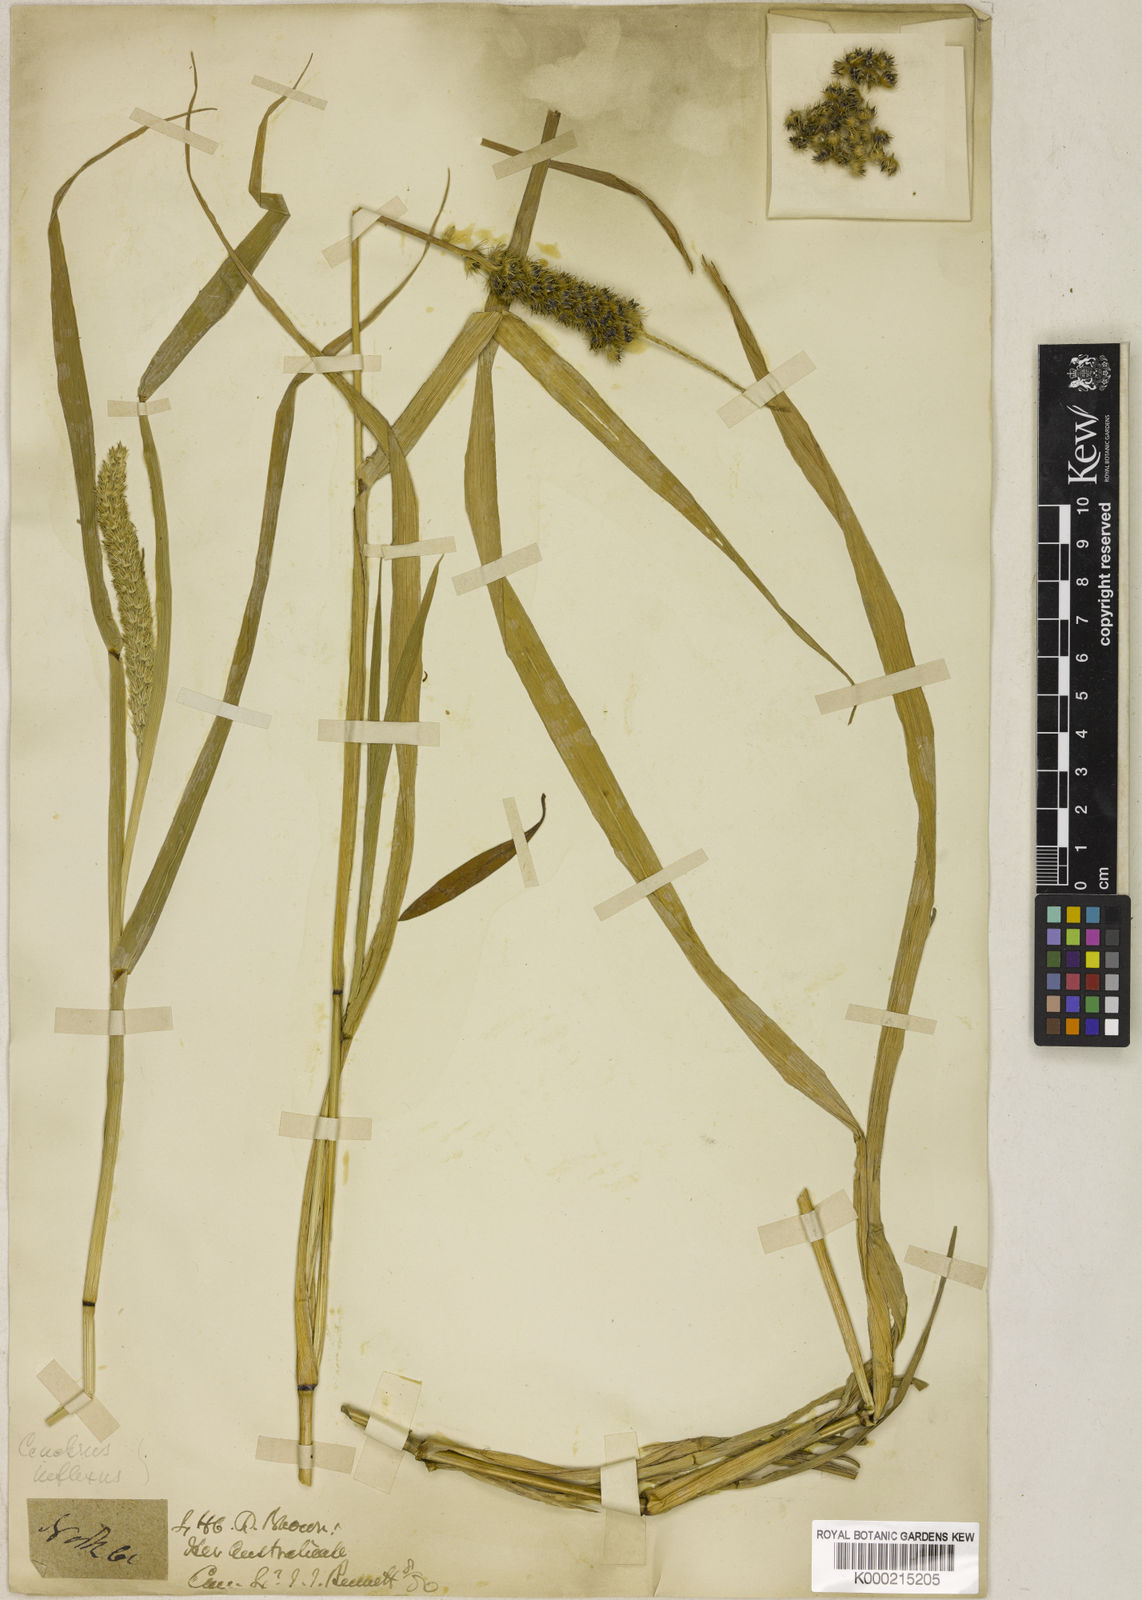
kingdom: Plantae
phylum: Tracheophyta
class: Liliopsida
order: Poales
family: Poaceae
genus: Cenchrus
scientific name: Cenchrus brownii
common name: Slim-bristle sandbur
